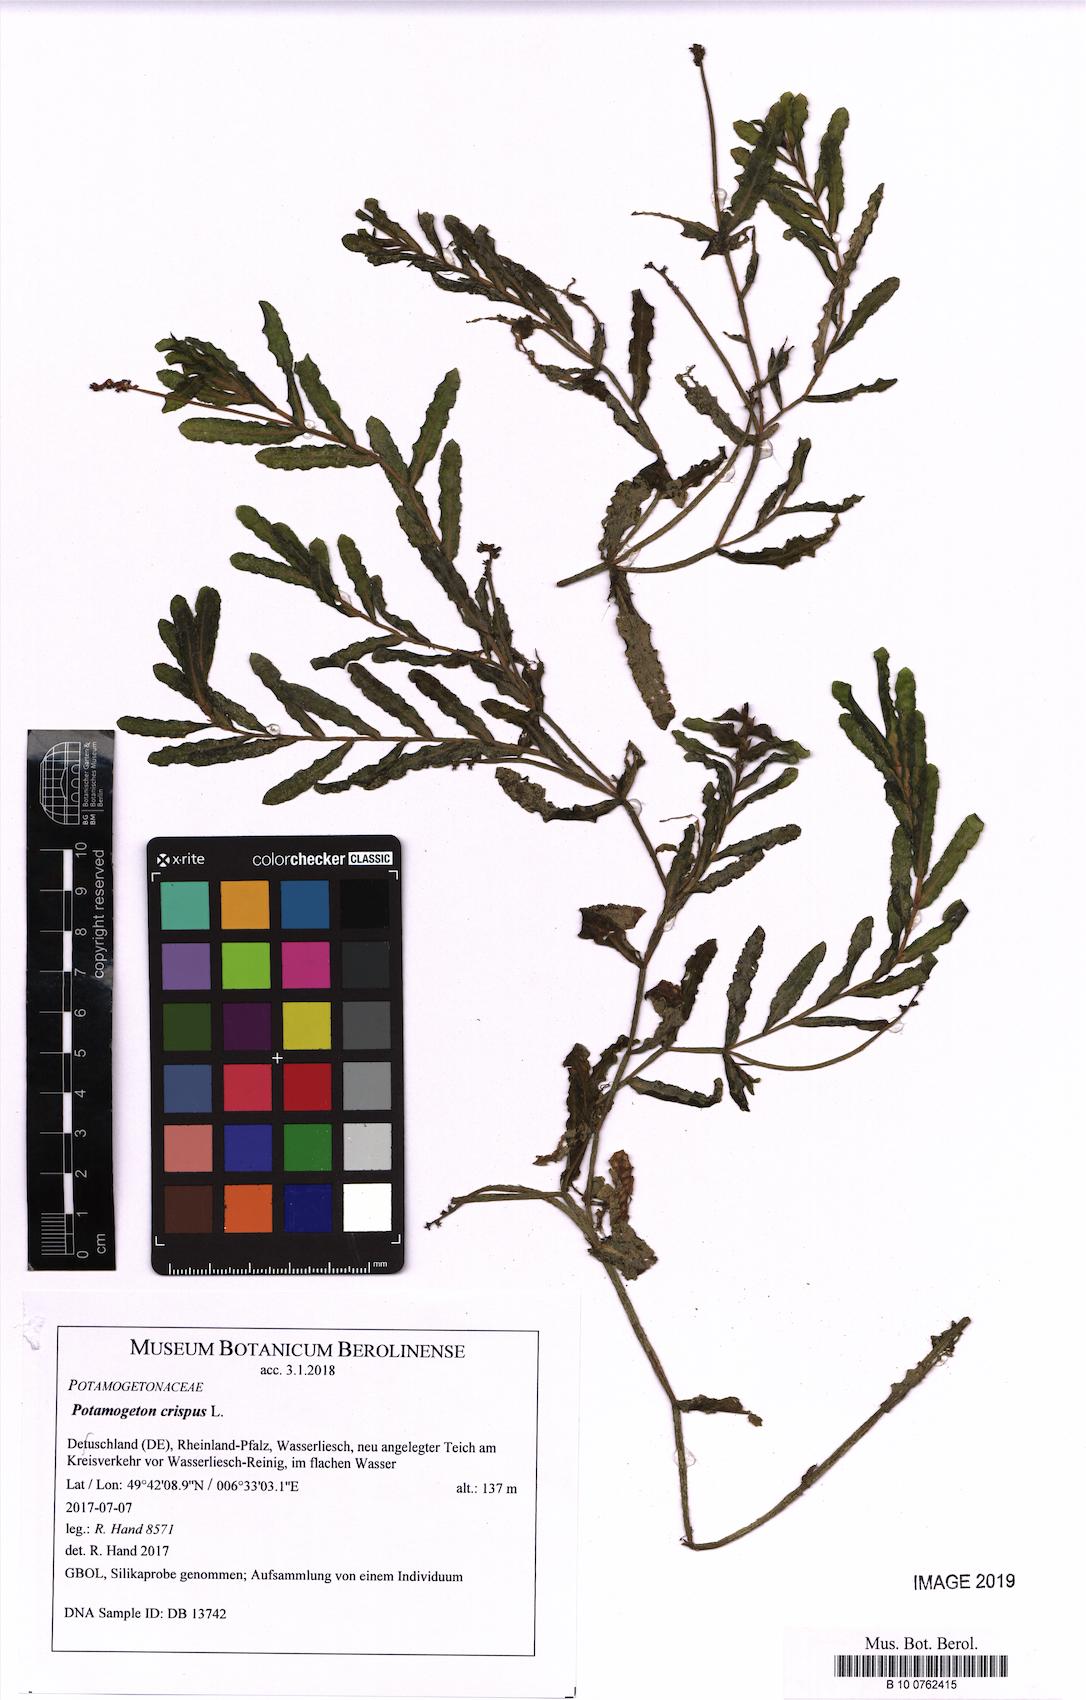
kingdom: Plantae
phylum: Tracheophyta
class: Liliopsida
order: Alismatales
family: Potamogetonaceae
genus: Potamogeton
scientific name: Potamogeton crispus
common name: Curled pondweed
